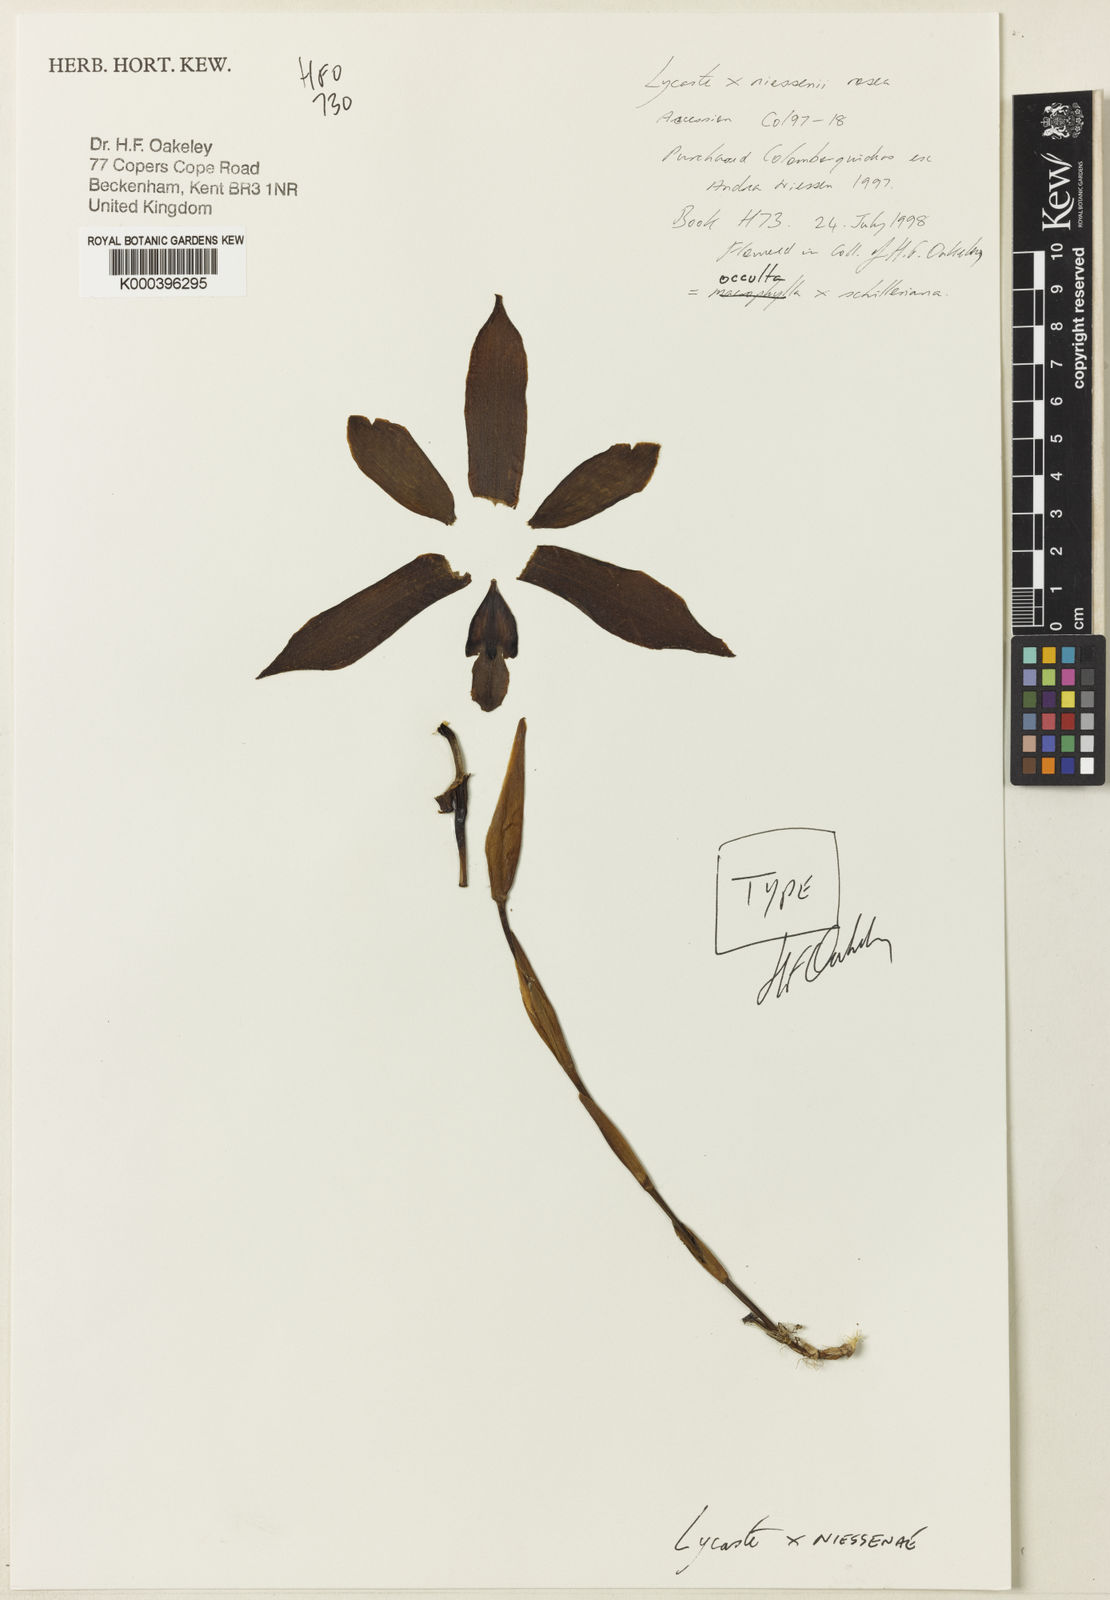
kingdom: Plantae
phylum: Tracheophyta
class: Liliopsida
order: Asparagales
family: Orchidaceae
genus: Lycaste
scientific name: Lycaste niesseniae
